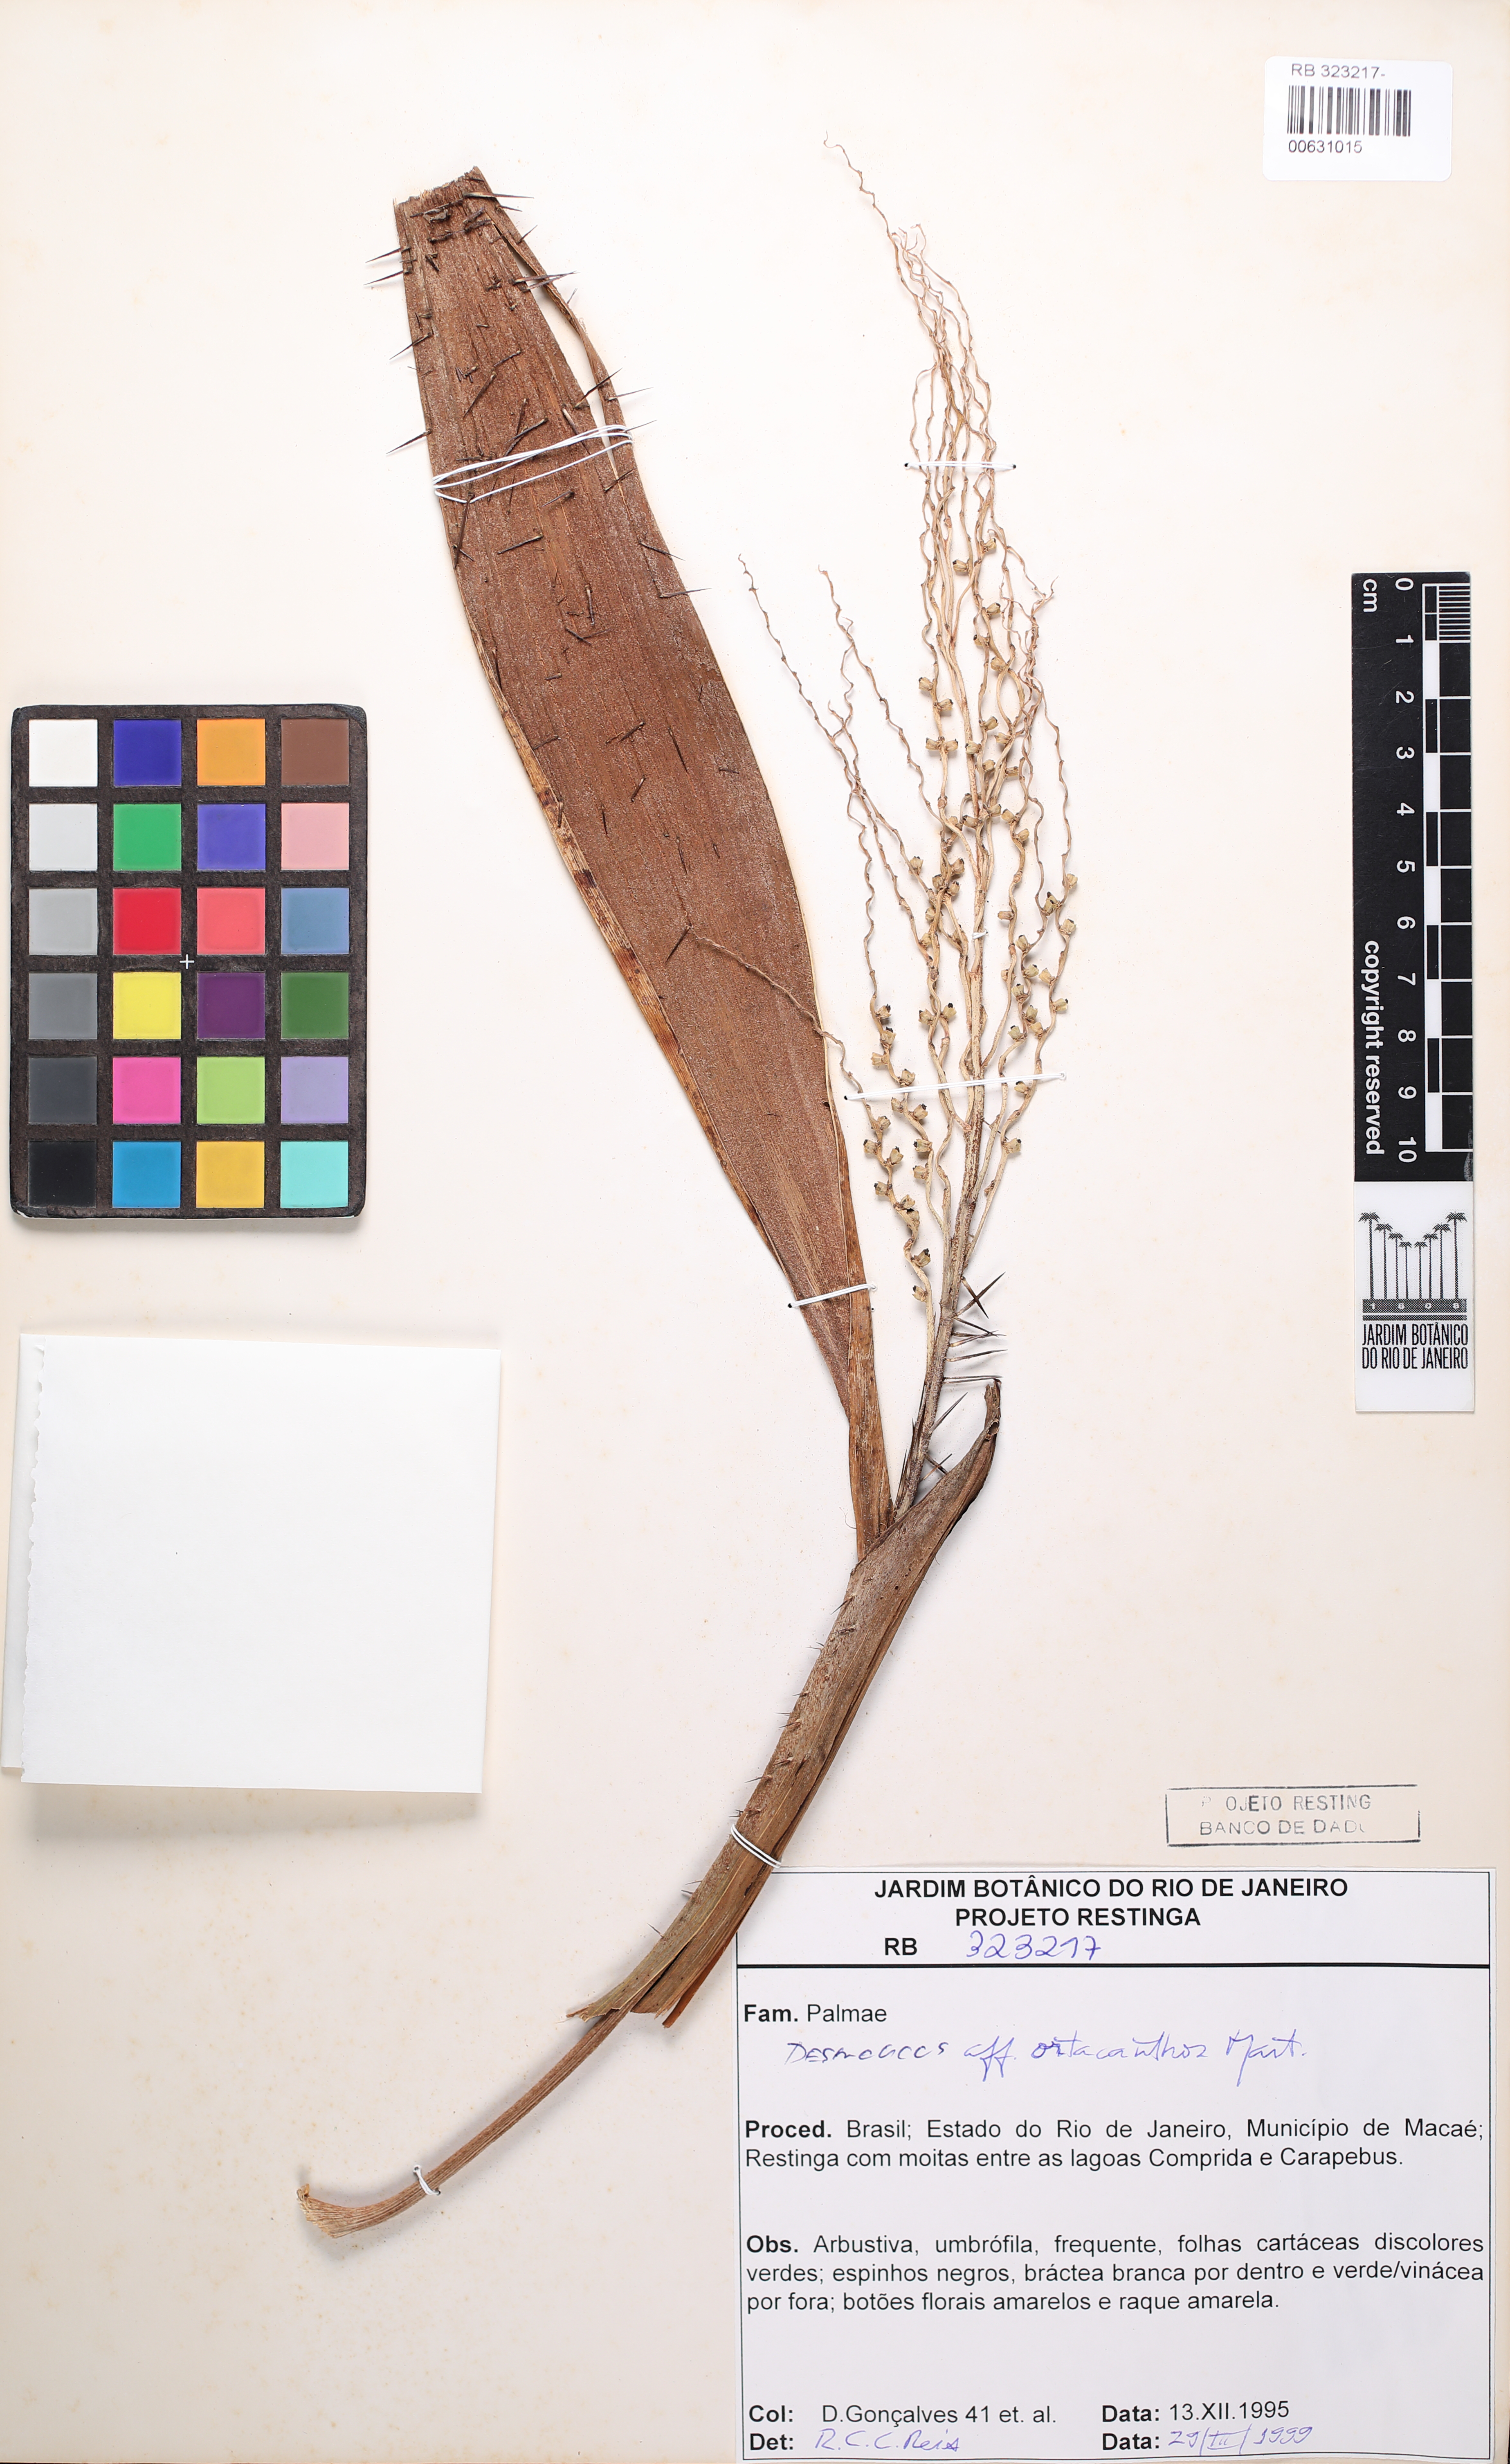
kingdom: Plantae
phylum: Tracheophyta
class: Liliopsida
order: Arecales
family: Arecaceae
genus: Desmoncus
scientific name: Desmoncus orthacanthos
